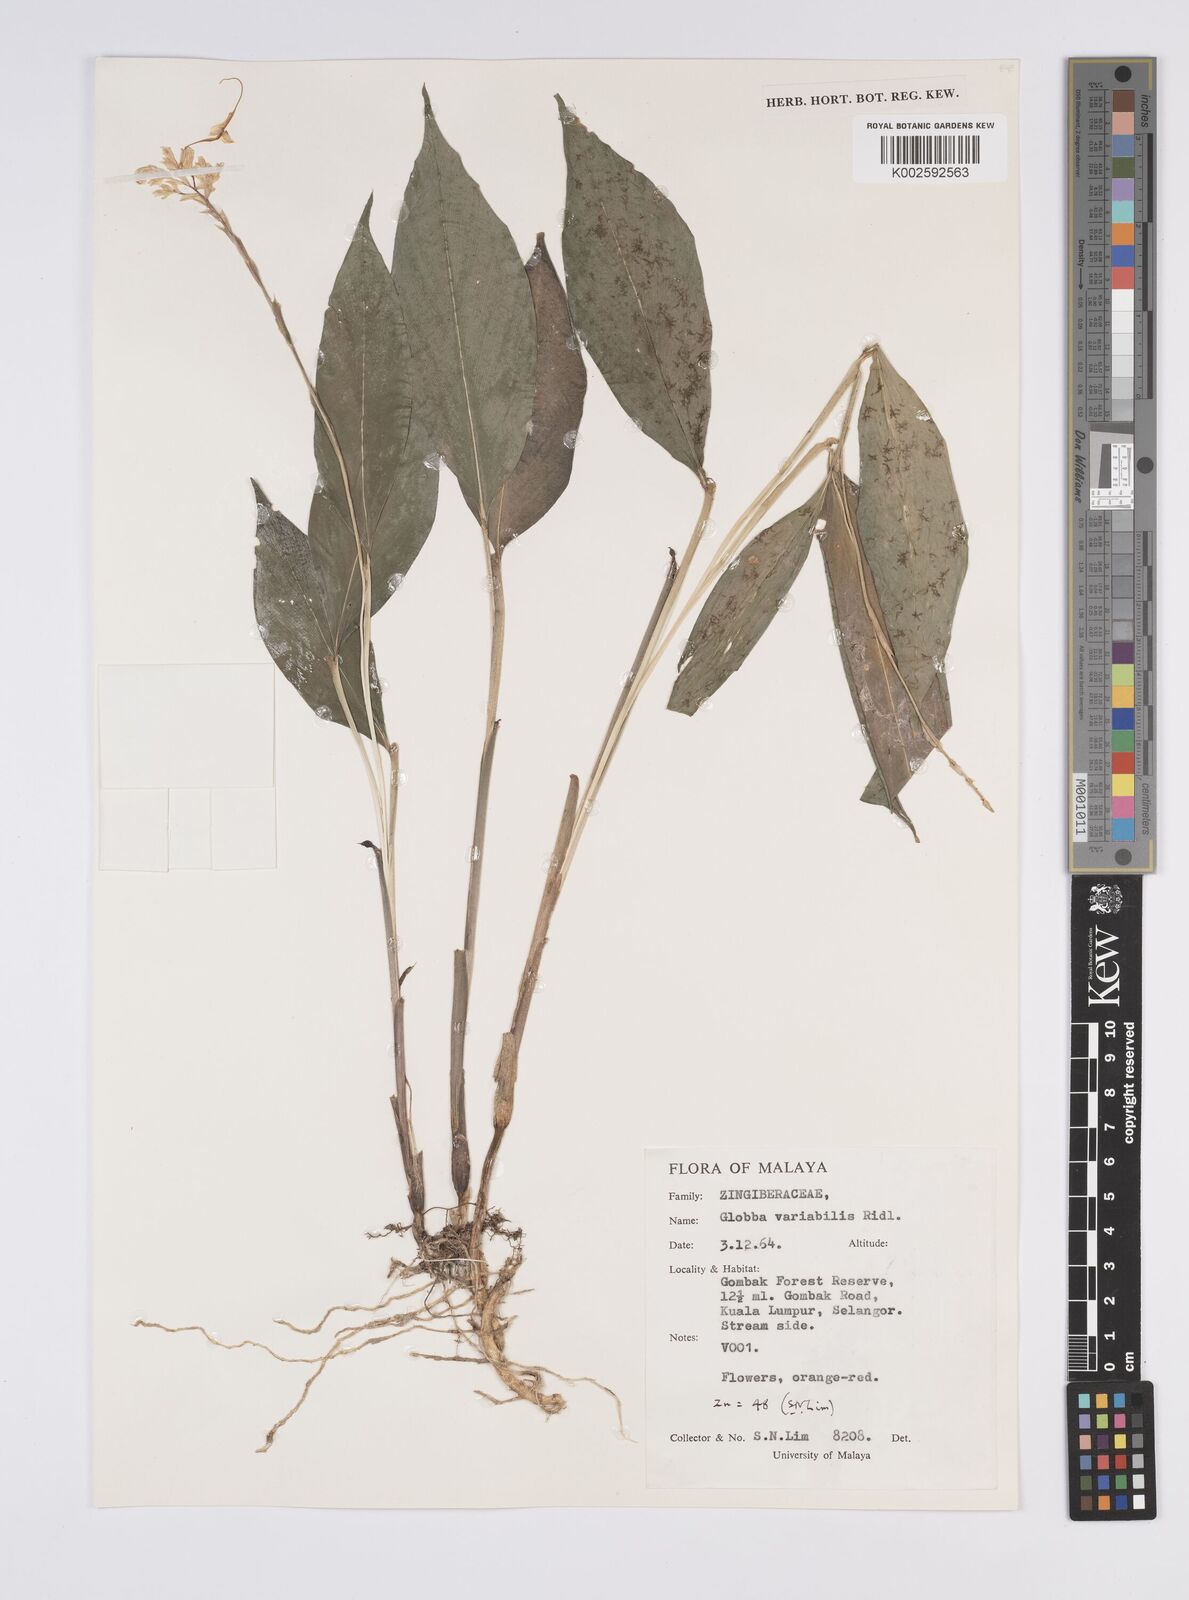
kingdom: Plantae
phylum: Tracheophyta
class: Liliopsida
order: Zingiberales
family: Zingiberaceae
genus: Globba
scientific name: Globba variabilis
